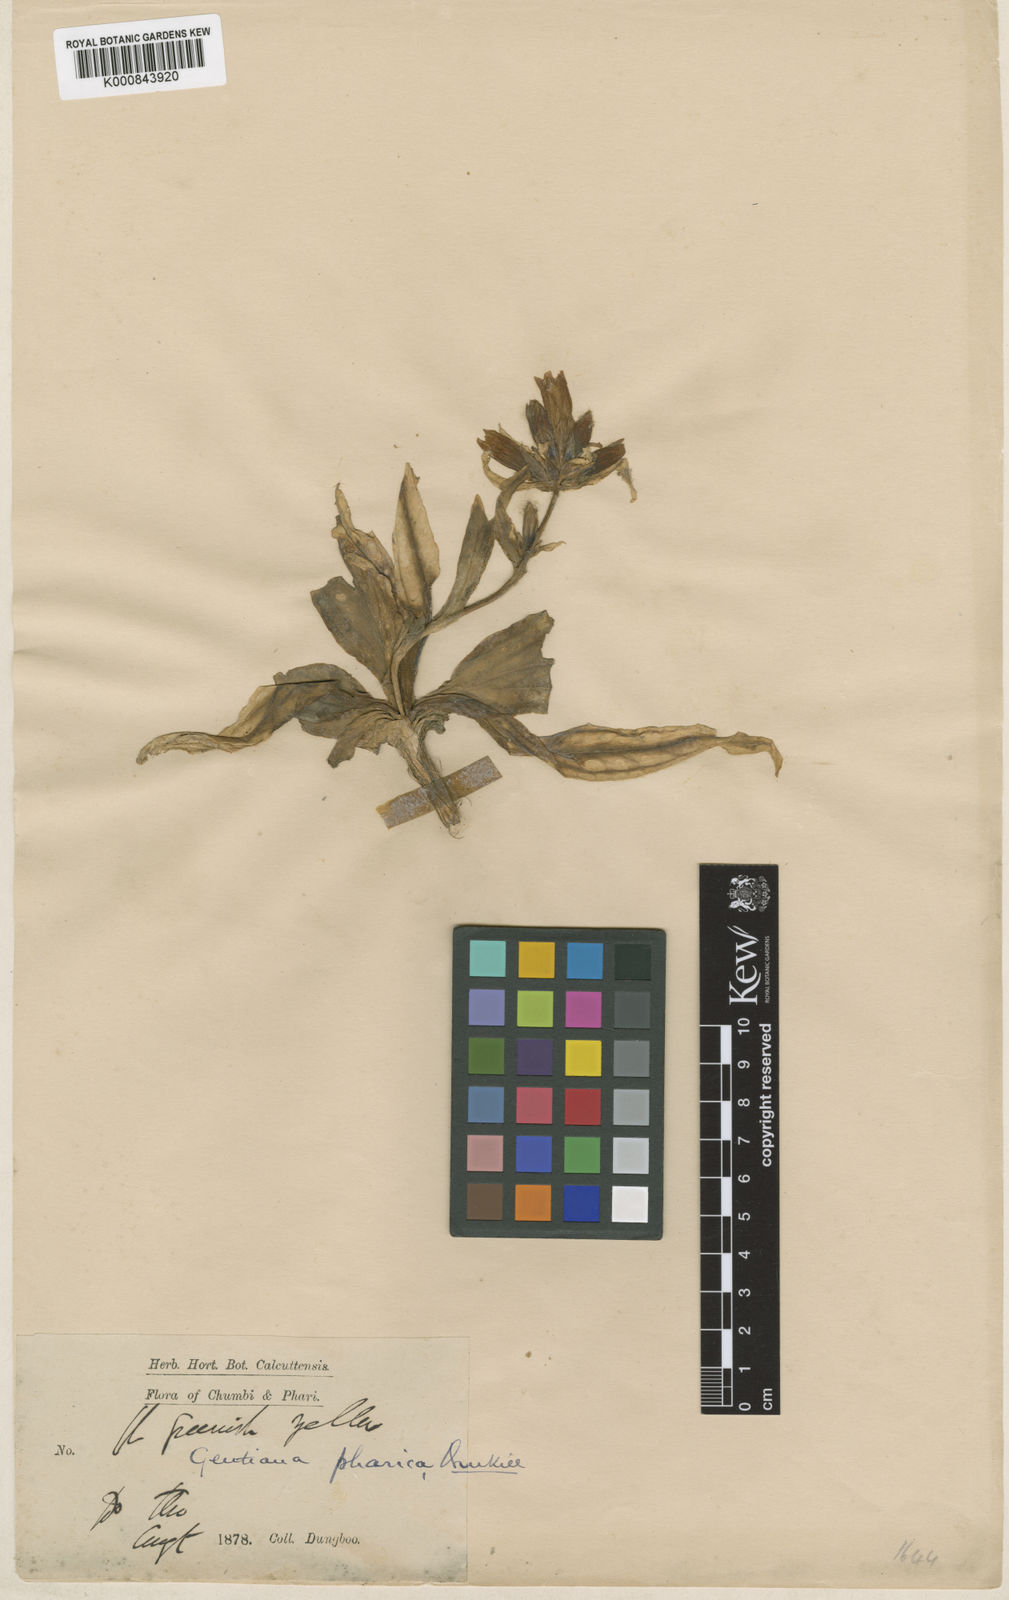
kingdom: Plantae
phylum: Tracheophyta
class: Magnoliopsida
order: Gentianales
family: Gentianaceae
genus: Gentiana
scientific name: Gentiana robusta
